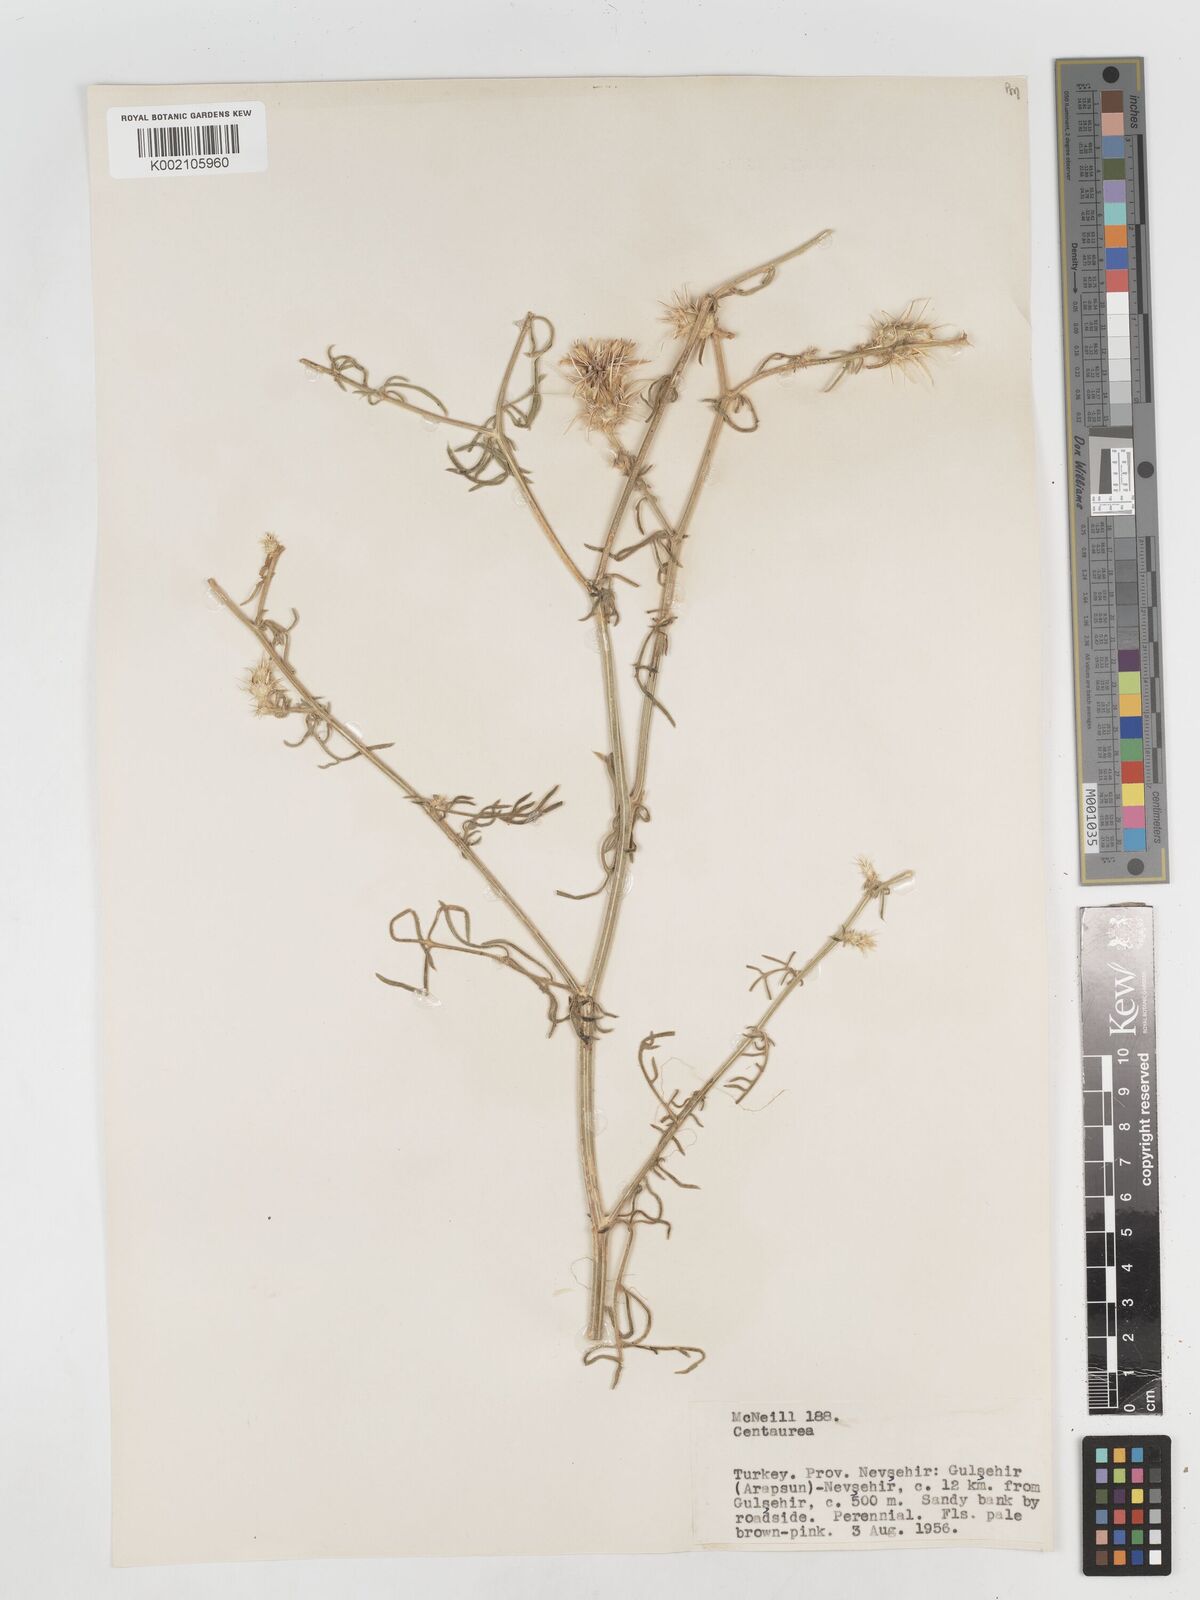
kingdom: Plantae
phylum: Tracheophyta
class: Magnoliopsida
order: Asterales
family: Asteraceae
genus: Centaurea
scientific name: Centaurea
